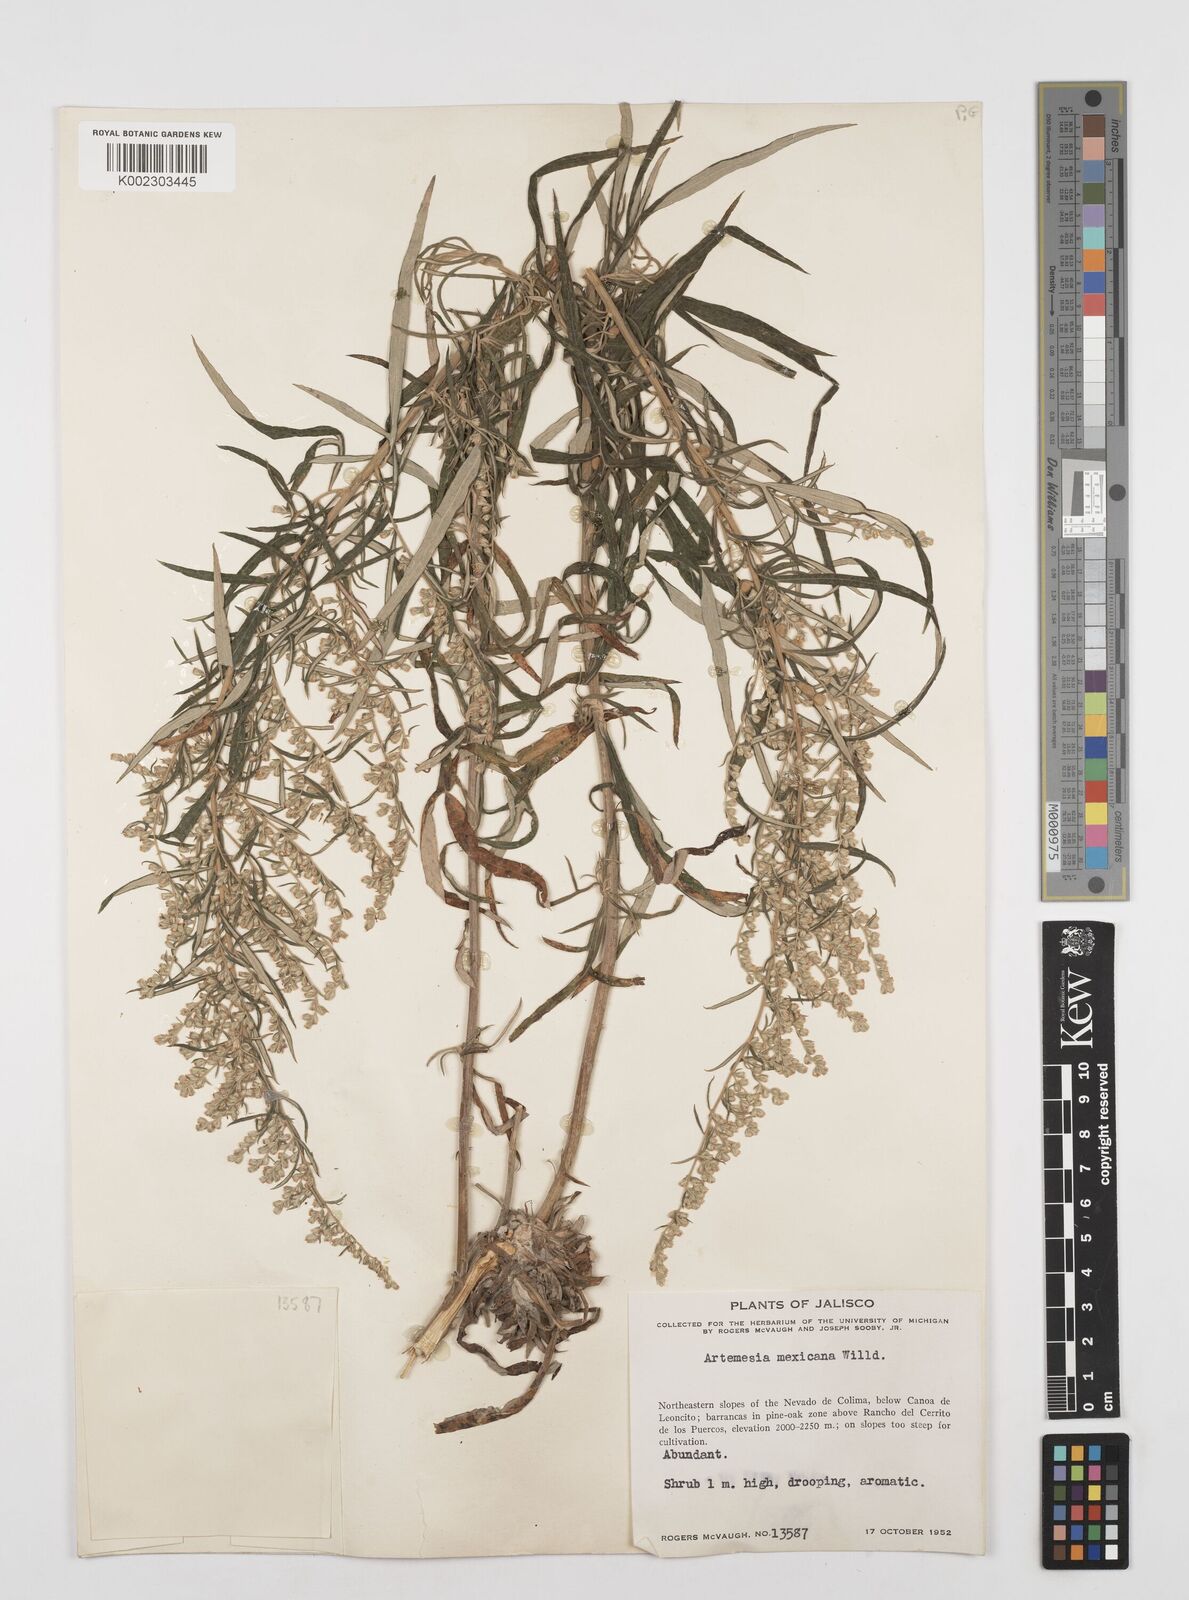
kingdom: Plantae
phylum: Tracheophyta
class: Magnoliopsida
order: Asterales
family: Asteraceae
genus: Artemisia
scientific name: Artemisia ludoviciana
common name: Western mugwort
